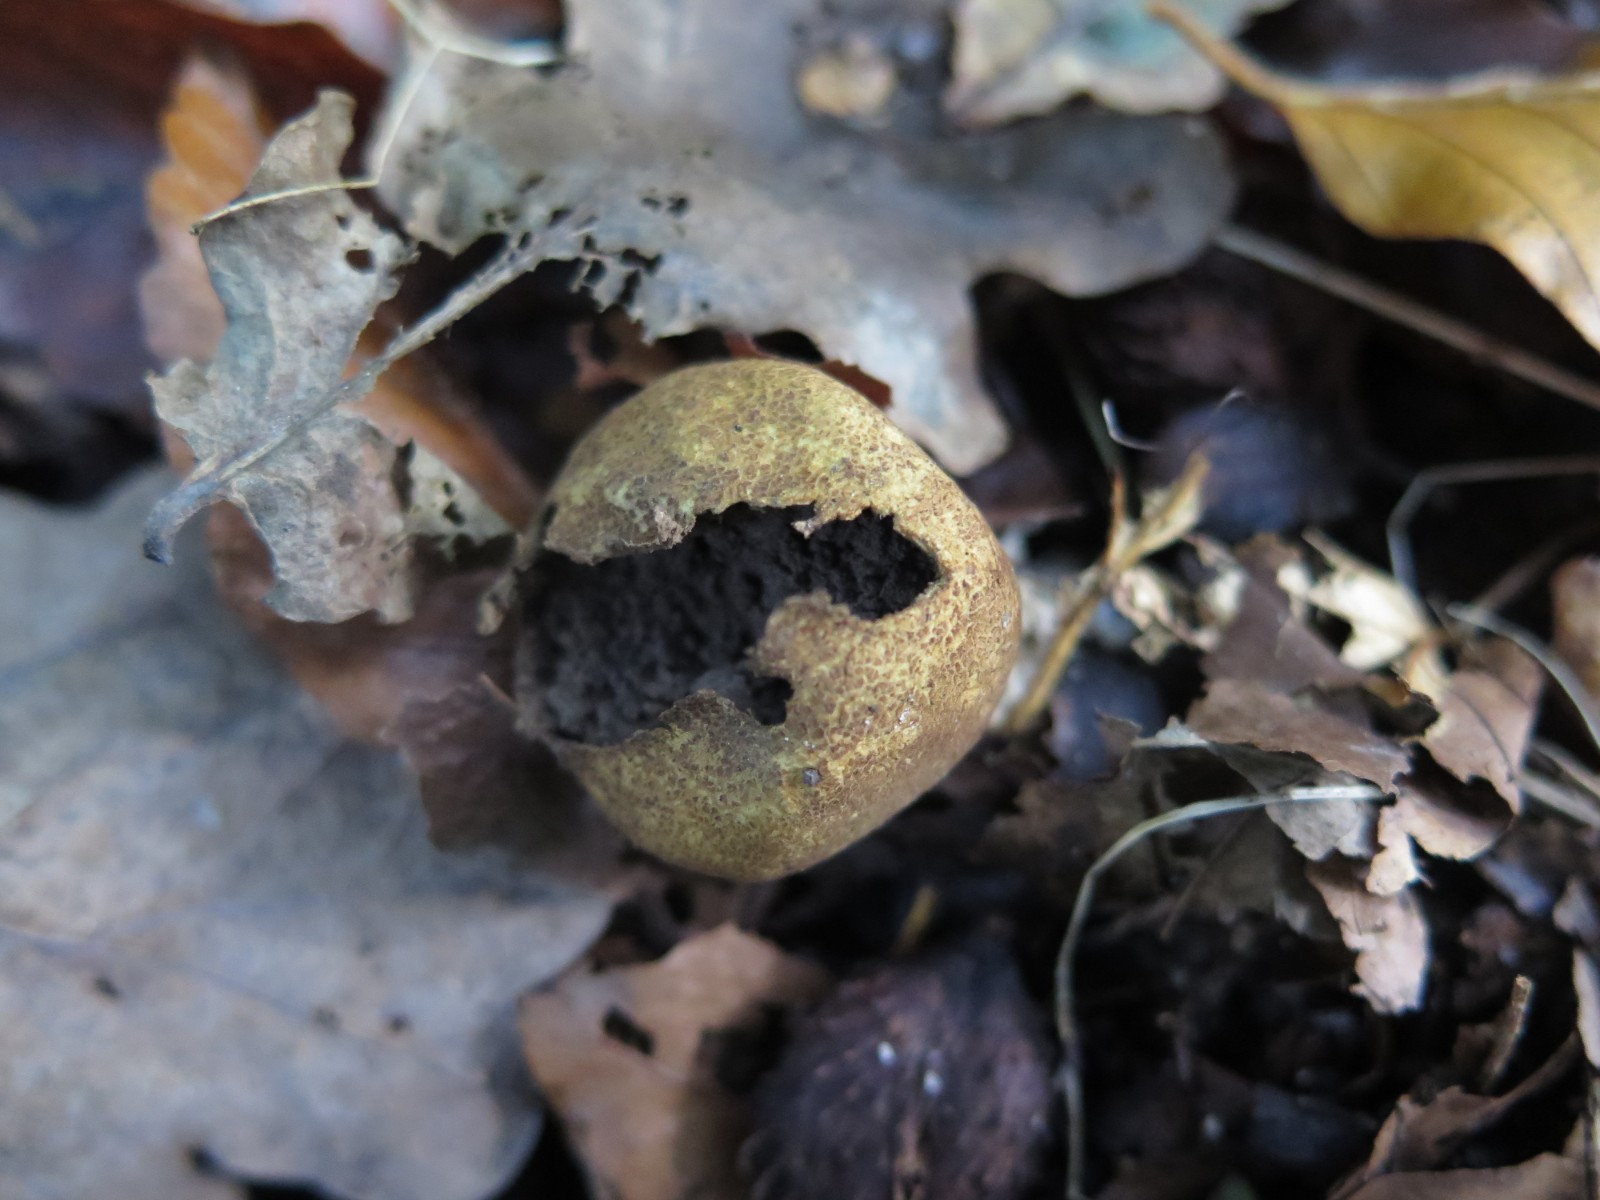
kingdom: Fungi
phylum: Basidiomycota
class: Agaricomycetes
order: Boletales
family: Sclerodermataceae
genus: Scleroderma
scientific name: Scleroderma verrucosum
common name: stilket bruskbold
